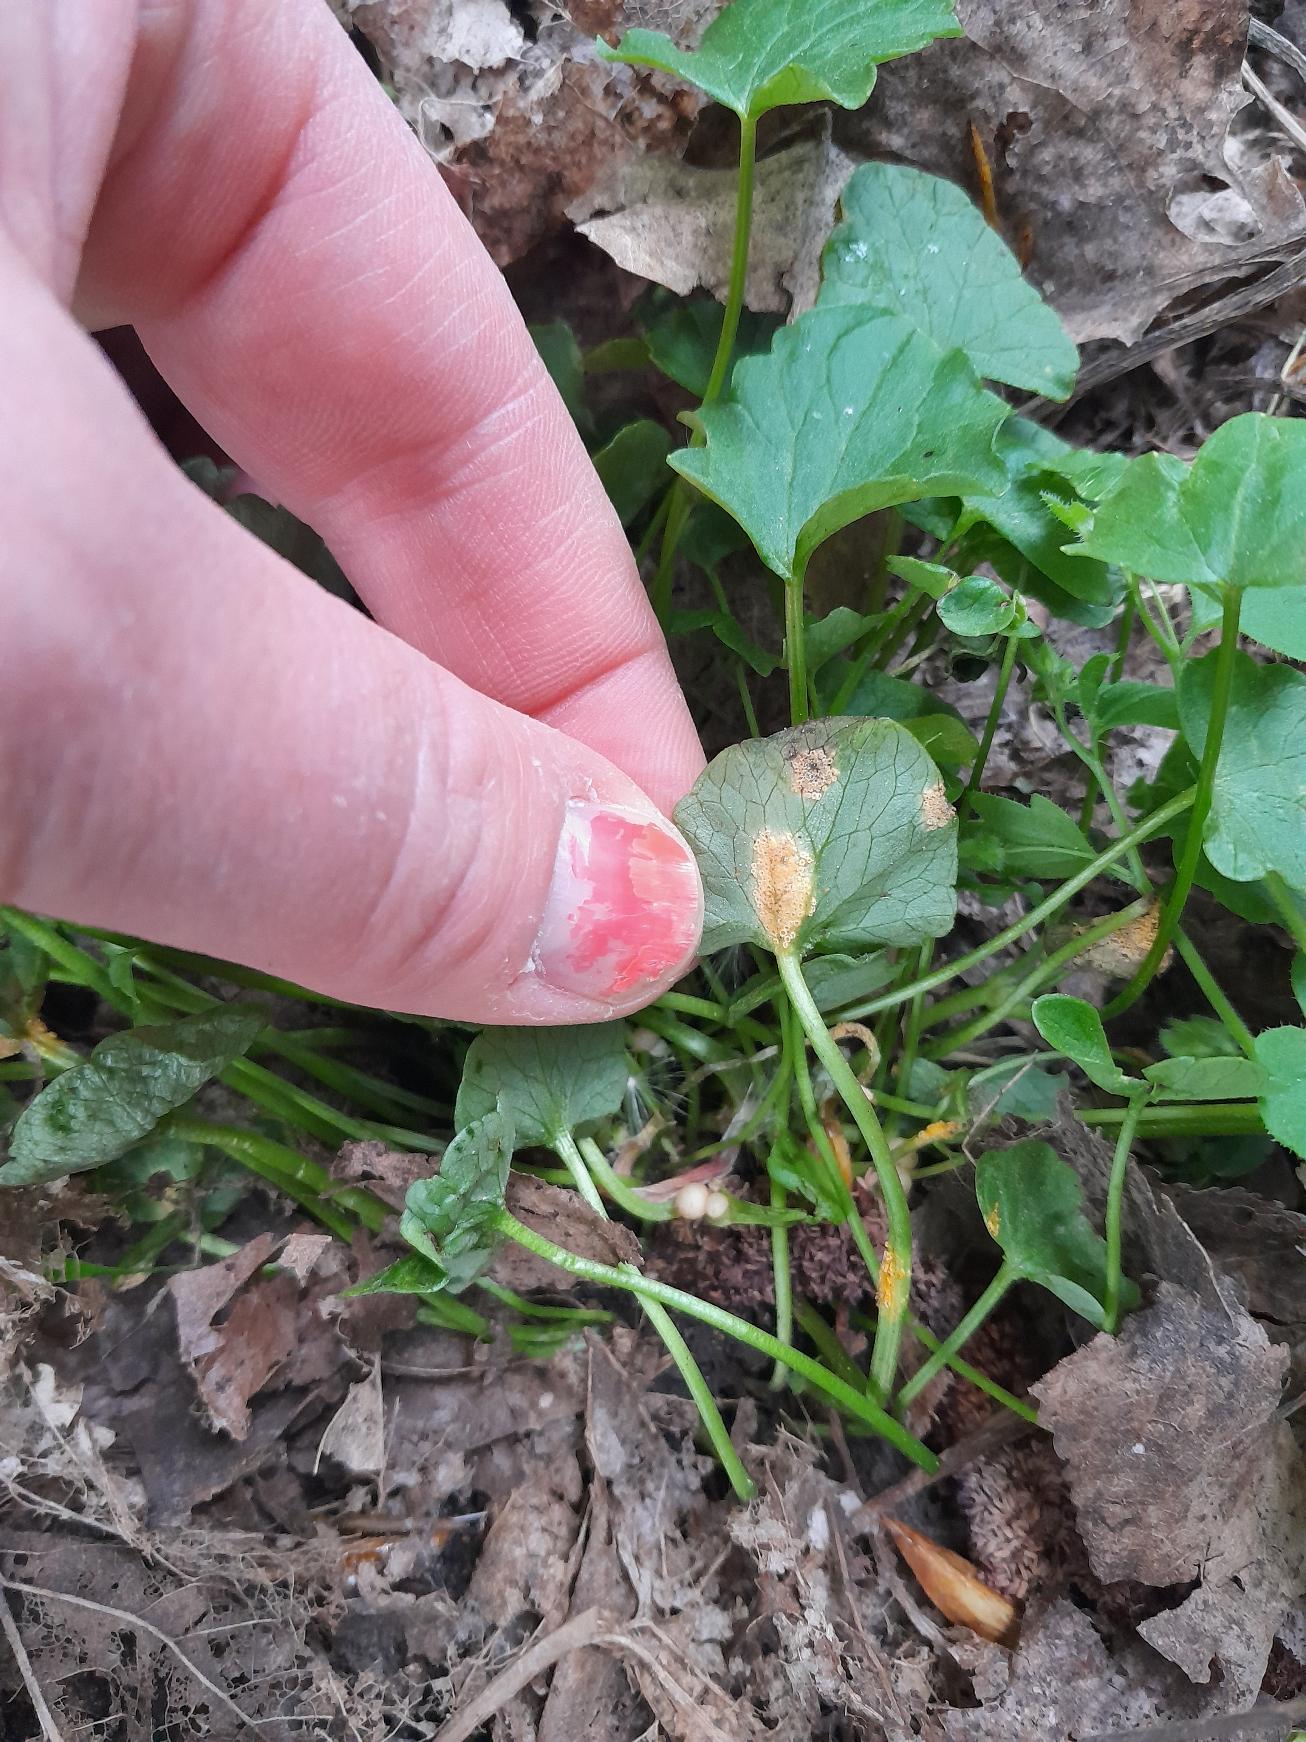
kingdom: Fungi
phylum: Basidiomycota
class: Pucciniomycetes
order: Pucciniales
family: Pucciniaceae
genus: Uromyces
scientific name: Uromyces dactylidis
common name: Ranunkel-encellerust
